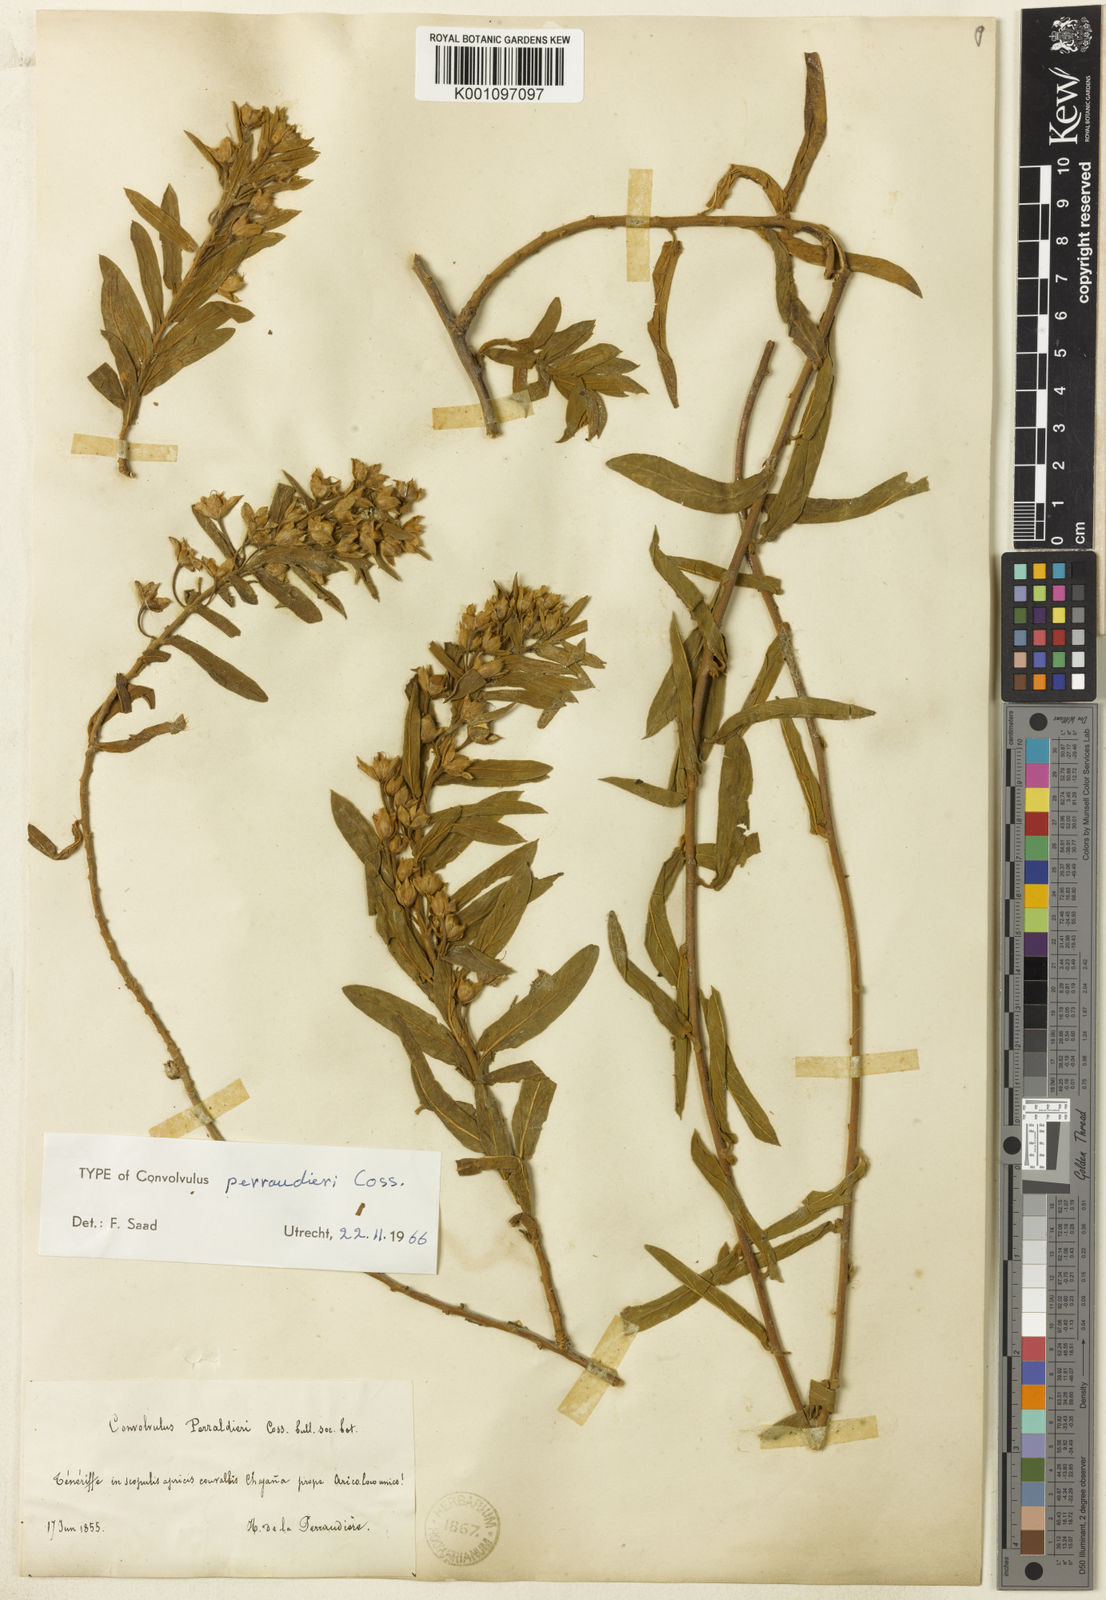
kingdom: Plantae
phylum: Tracheophyta
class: Magnoliopsida
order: Solanales
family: Convolvulaceae
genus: Convolvulus
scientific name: Convolvulus perraudieri
